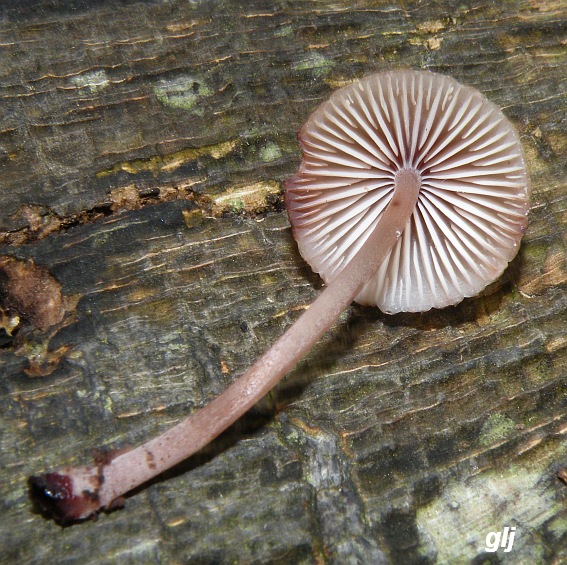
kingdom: Fungi
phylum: Basidiomycota
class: Agaricomycetes
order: Agaricales
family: Mycenaceae
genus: Mycena
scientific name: Mycena haematopus
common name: blødende huesvamp
